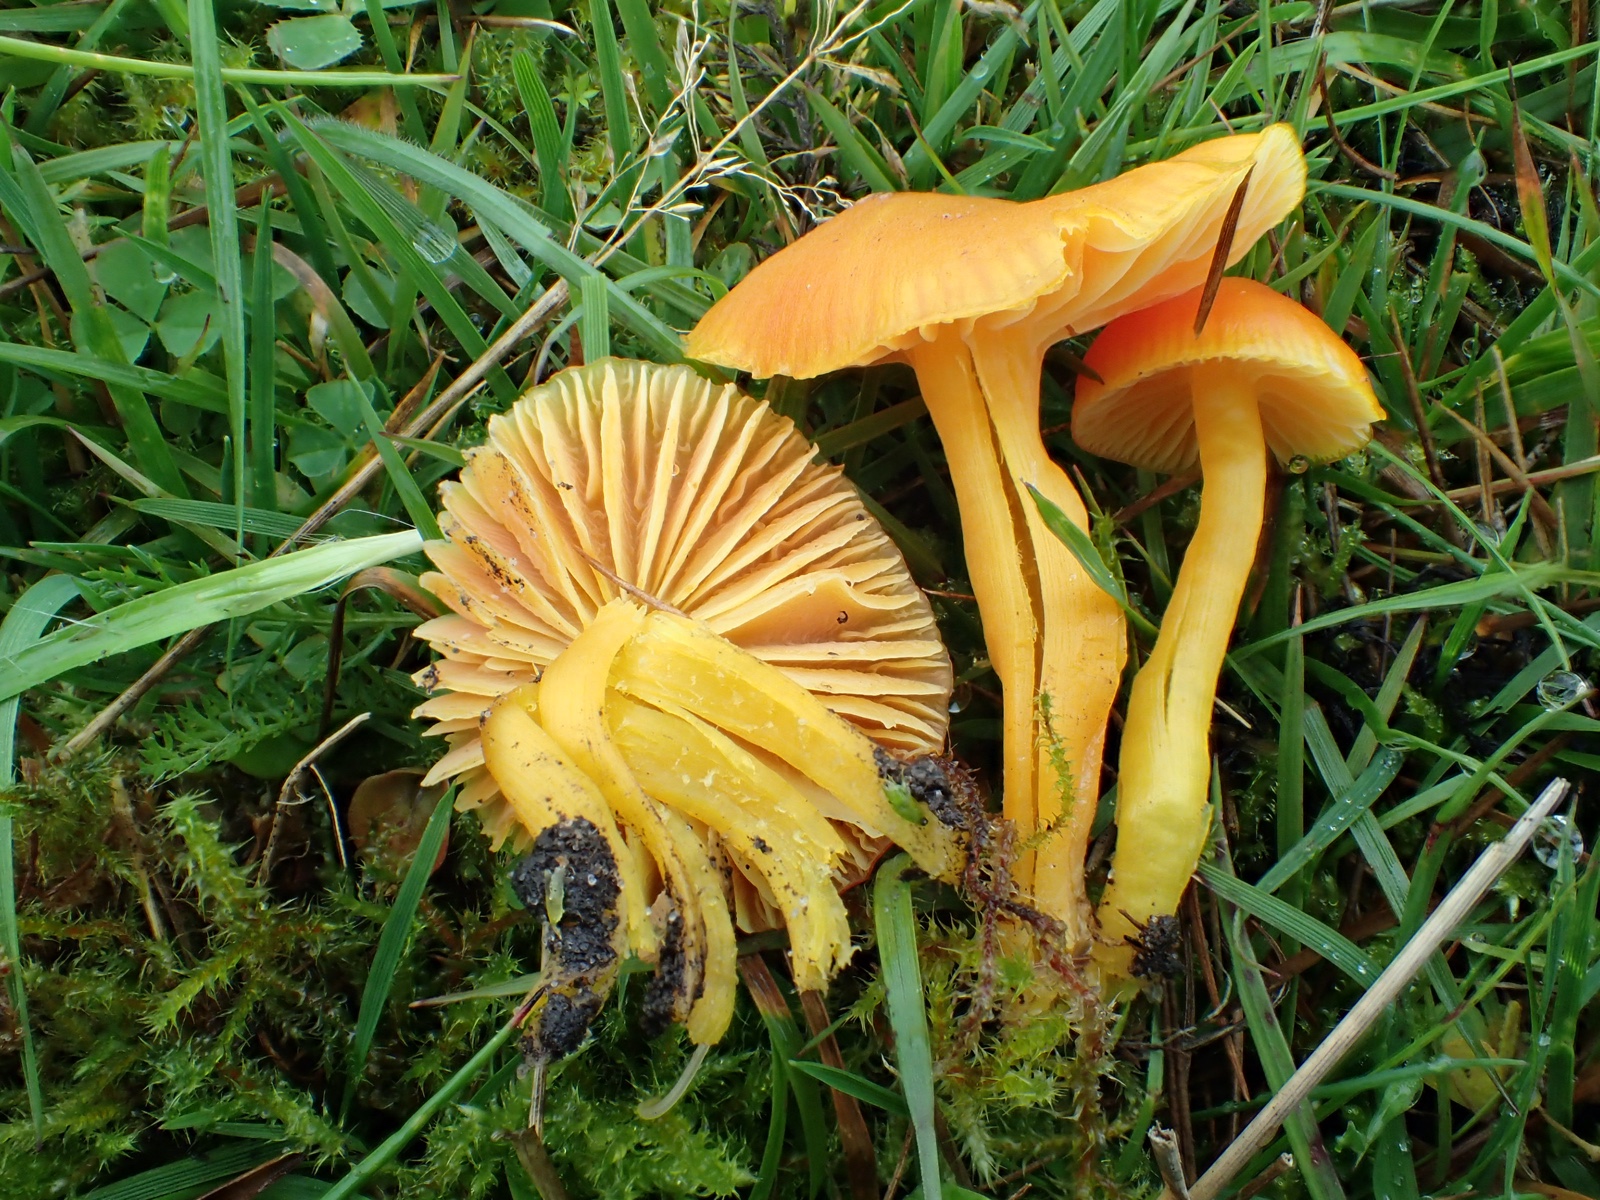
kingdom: Fungi
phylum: Basidiomycota
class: Agaricomycetes
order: Agaricales
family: Hygrophoraceae
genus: Hygrocybe
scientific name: Hygrocybe ceracea
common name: voksgul vokshat
